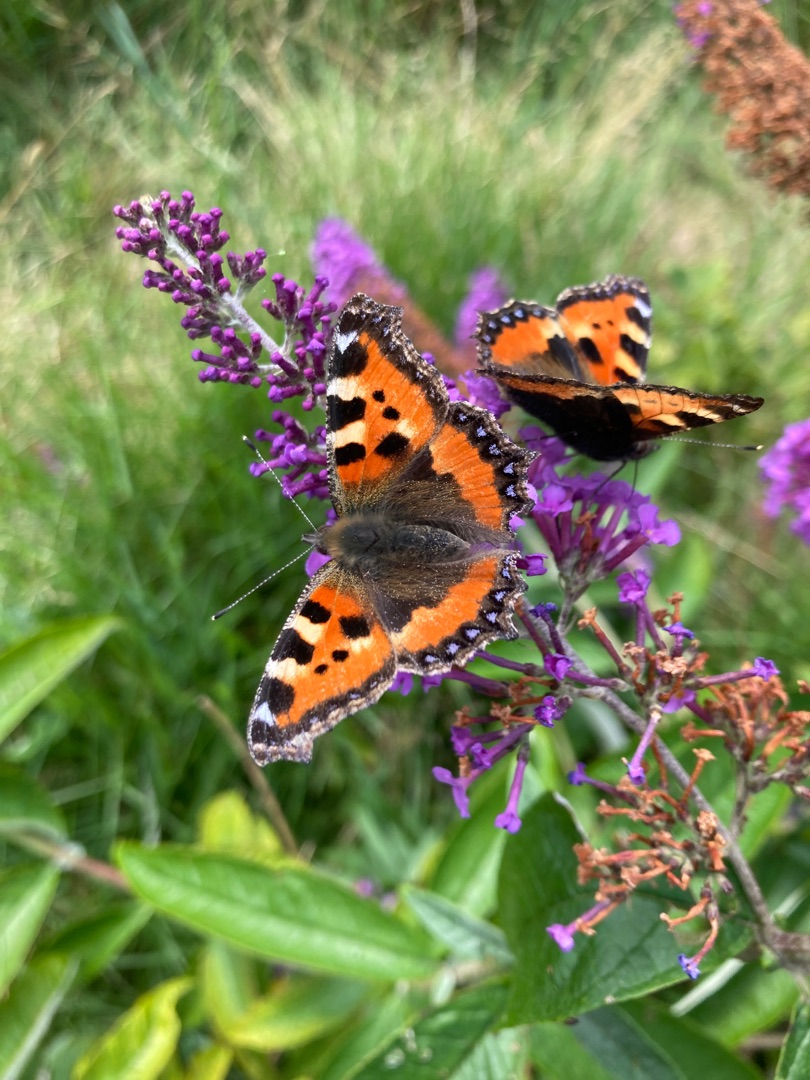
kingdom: Animalia
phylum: Arthropoda
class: Insecta
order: Lepidoptera
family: Nymphalidae
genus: Aglais
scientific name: Aglais urticae
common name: Nældens takvinge
